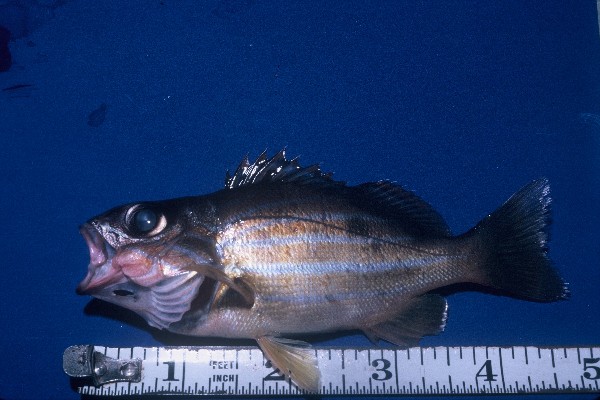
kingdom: Animalia
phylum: Chordata
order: Perciformes
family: Lutjanidae
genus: Lutjanus
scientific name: Lutjanus notatus
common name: Bluestriped snapper
